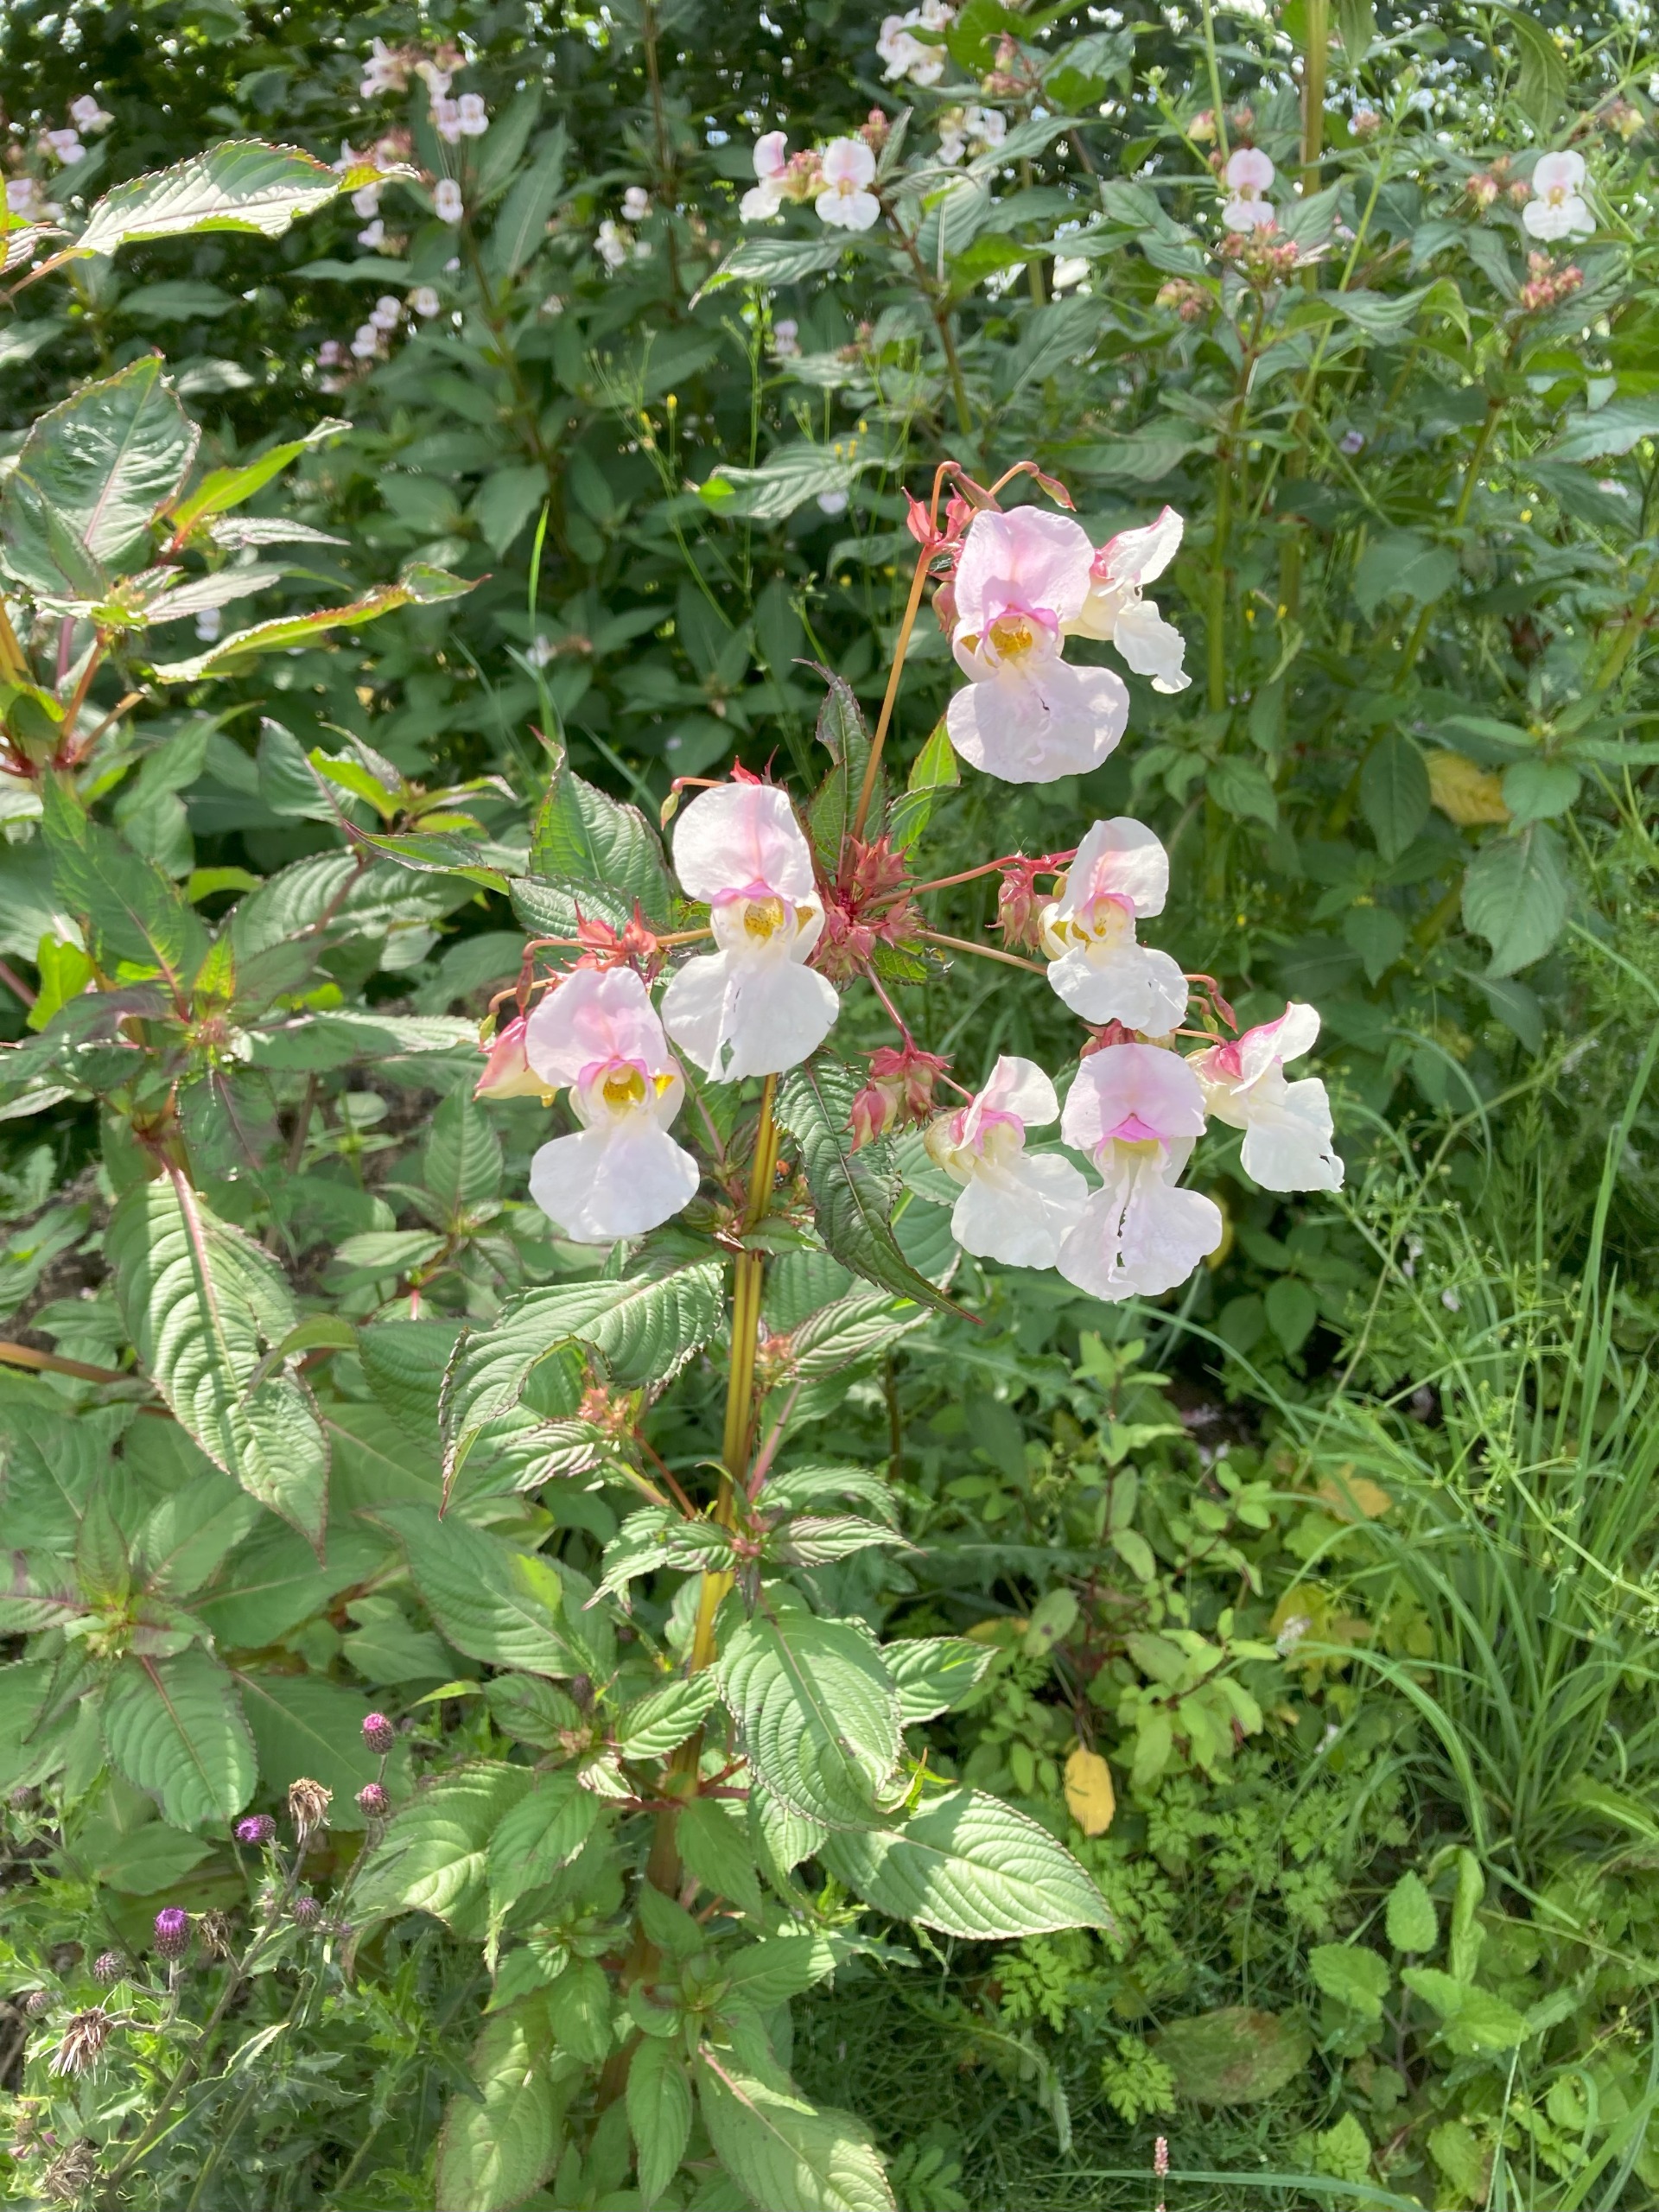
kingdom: Plantae
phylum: Tracheophyta
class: Magnoliopsida
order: Ericales
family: Balsaminaceae
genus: Impatiens
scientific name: Impatiens glandulifera
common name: Kæmpe-balsamin
